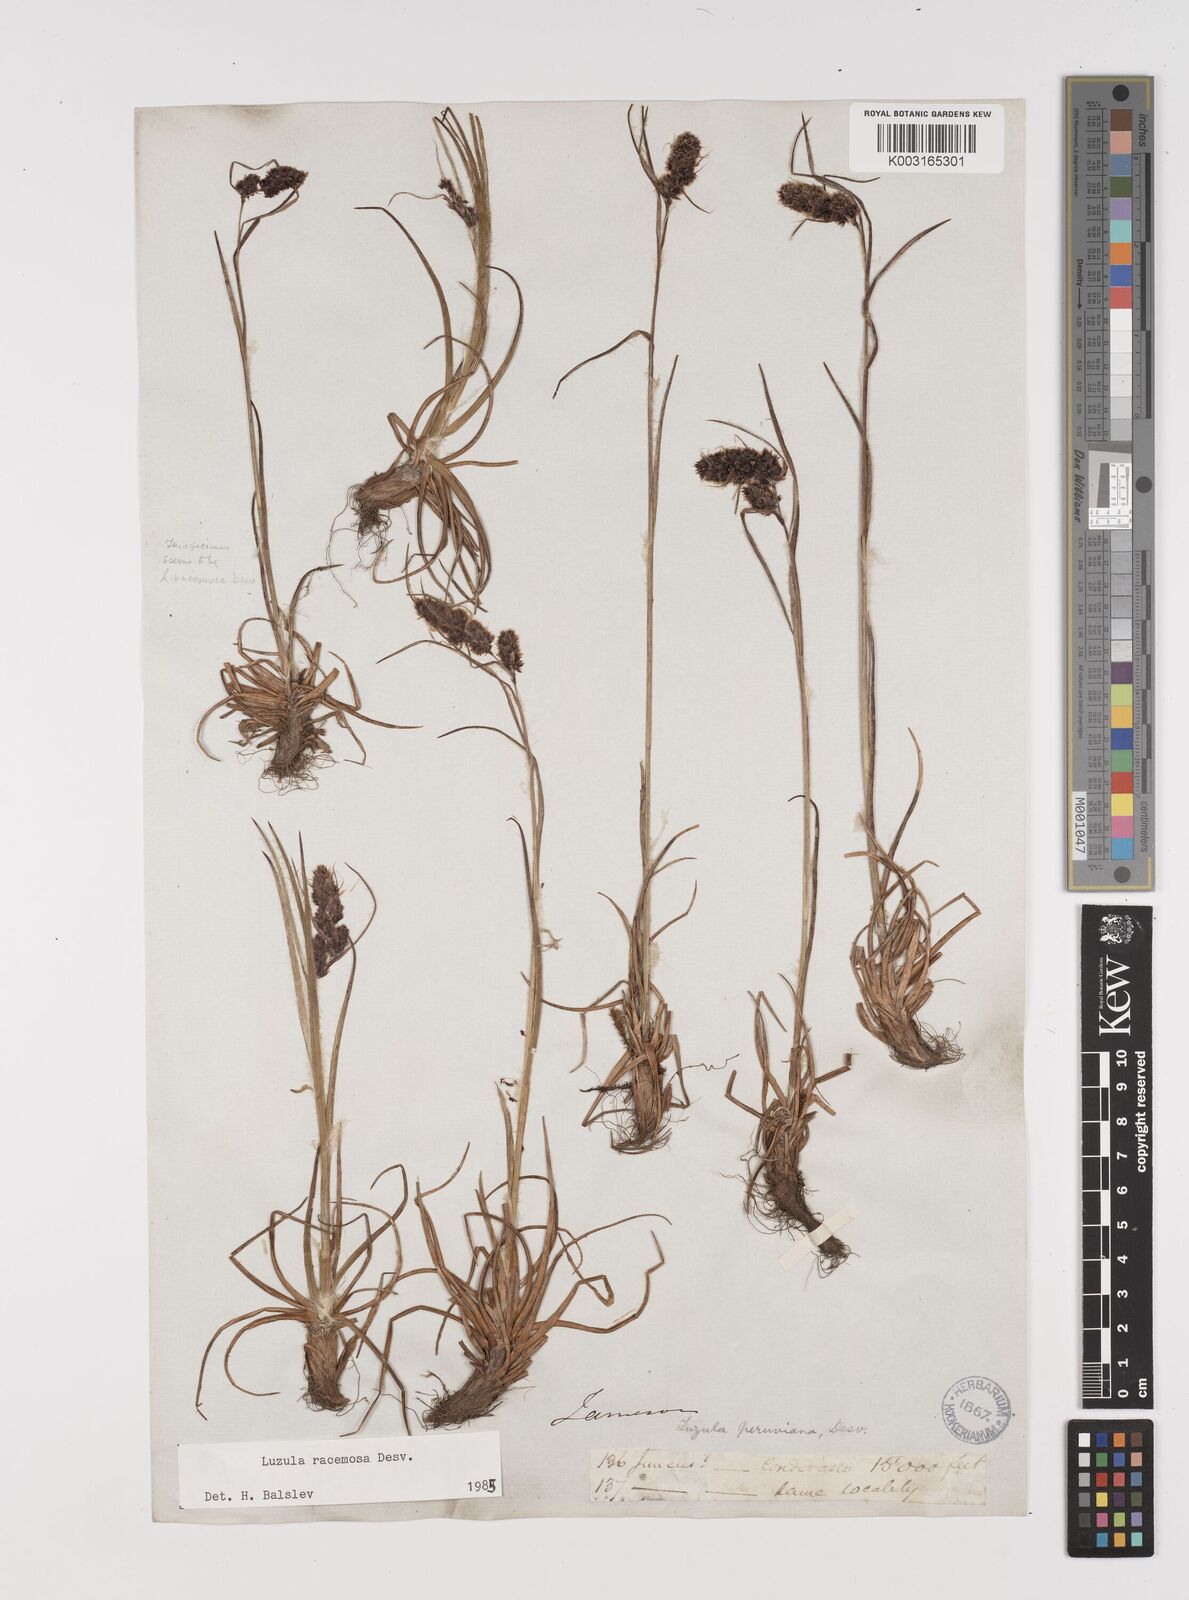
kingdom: Plantae
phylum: Tracheophyta
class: Liliopsida
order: Poales
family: Juncaceae
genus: Luzula
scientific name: Luzula racemosa
